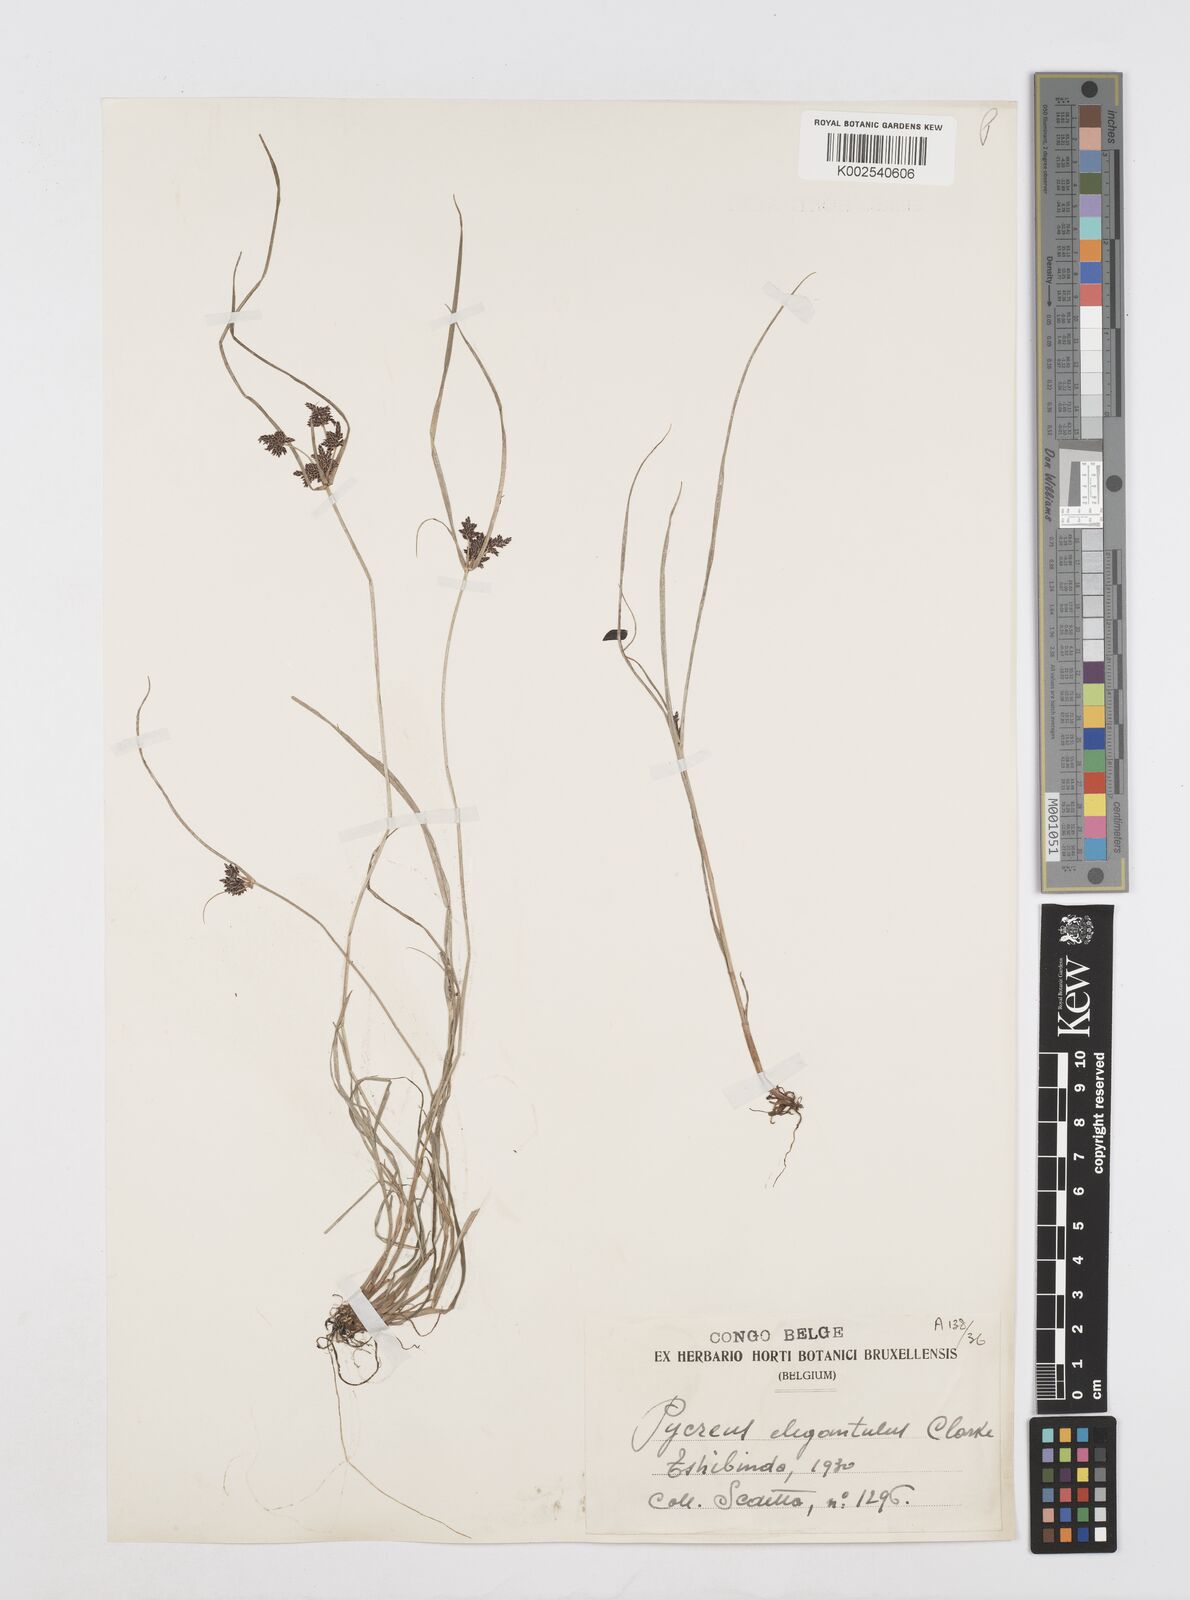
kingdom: Plantae
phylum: Tracheophyta
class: Liliopsida
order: Poales
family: Cyperaceae
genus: Cyperus
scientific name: Cyperus elegantulus
